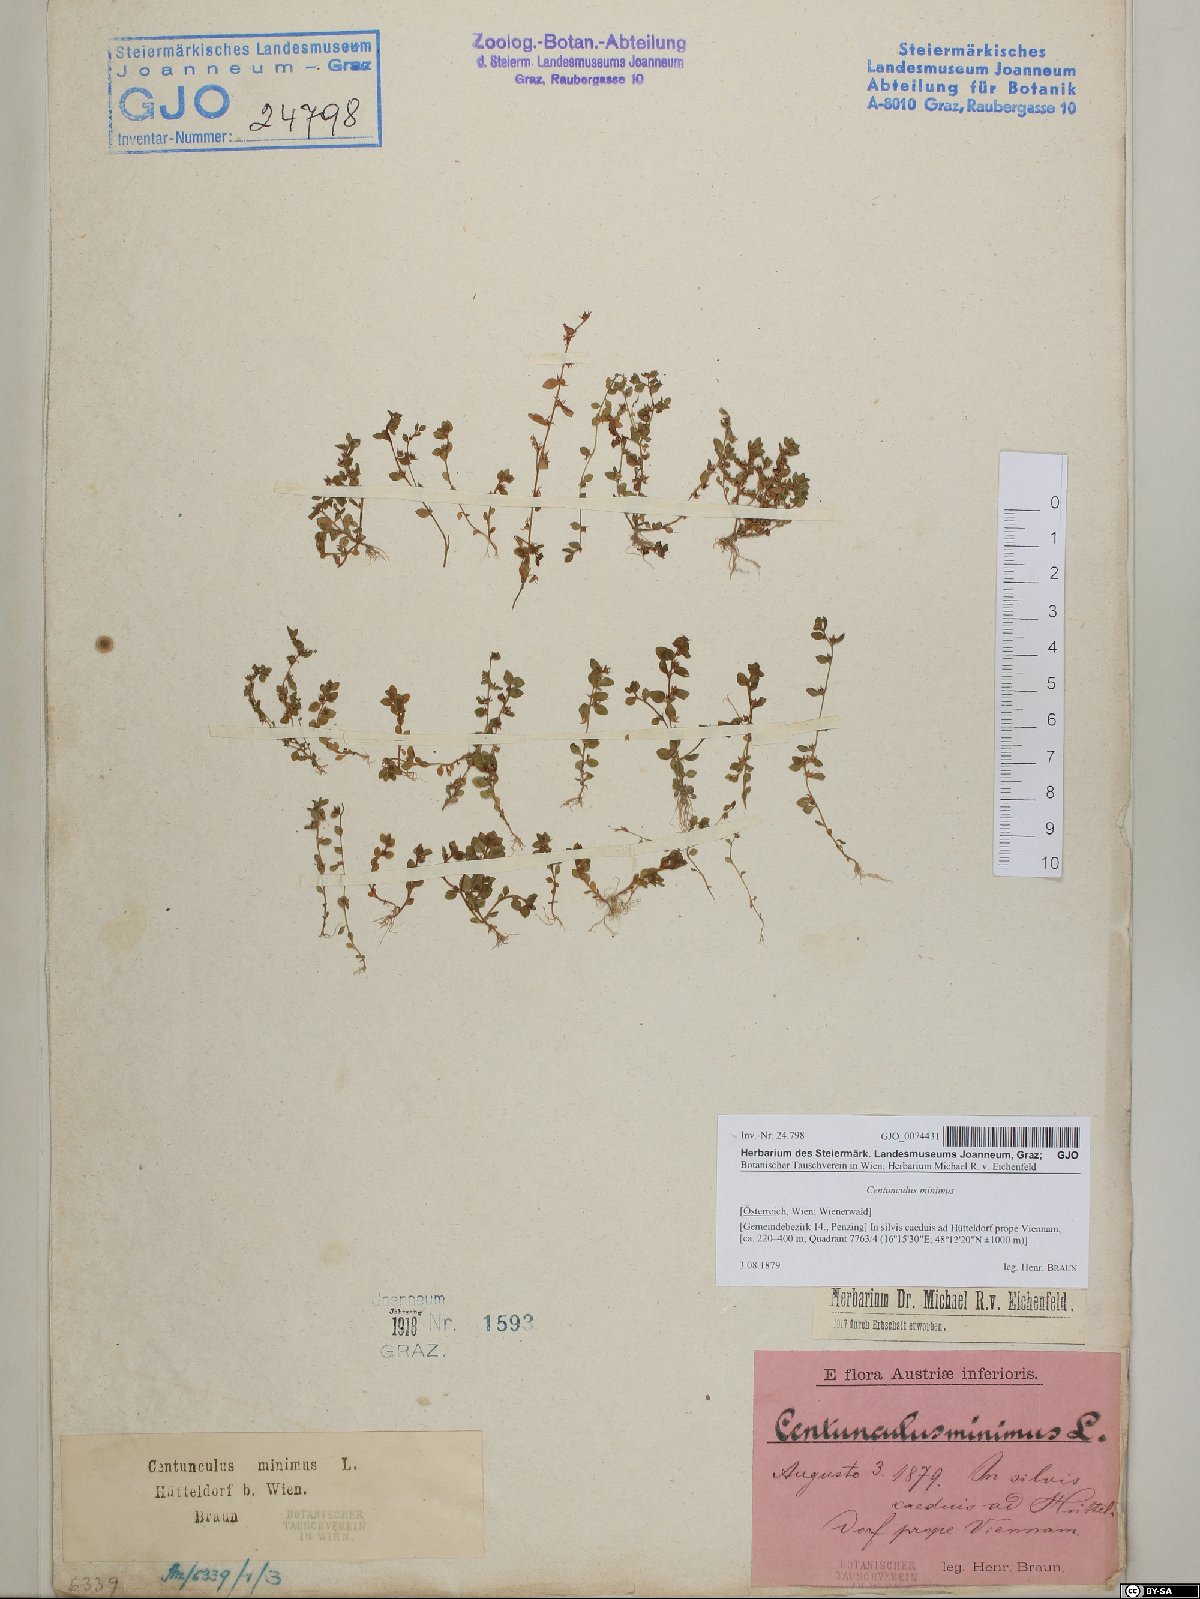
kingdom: Plantae
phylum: Tracheophyta
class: Magnoliopsida
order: Ericales
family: Primulaceae
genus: Lysimachia
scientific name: Lysimachia minima
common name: Chaffweed
